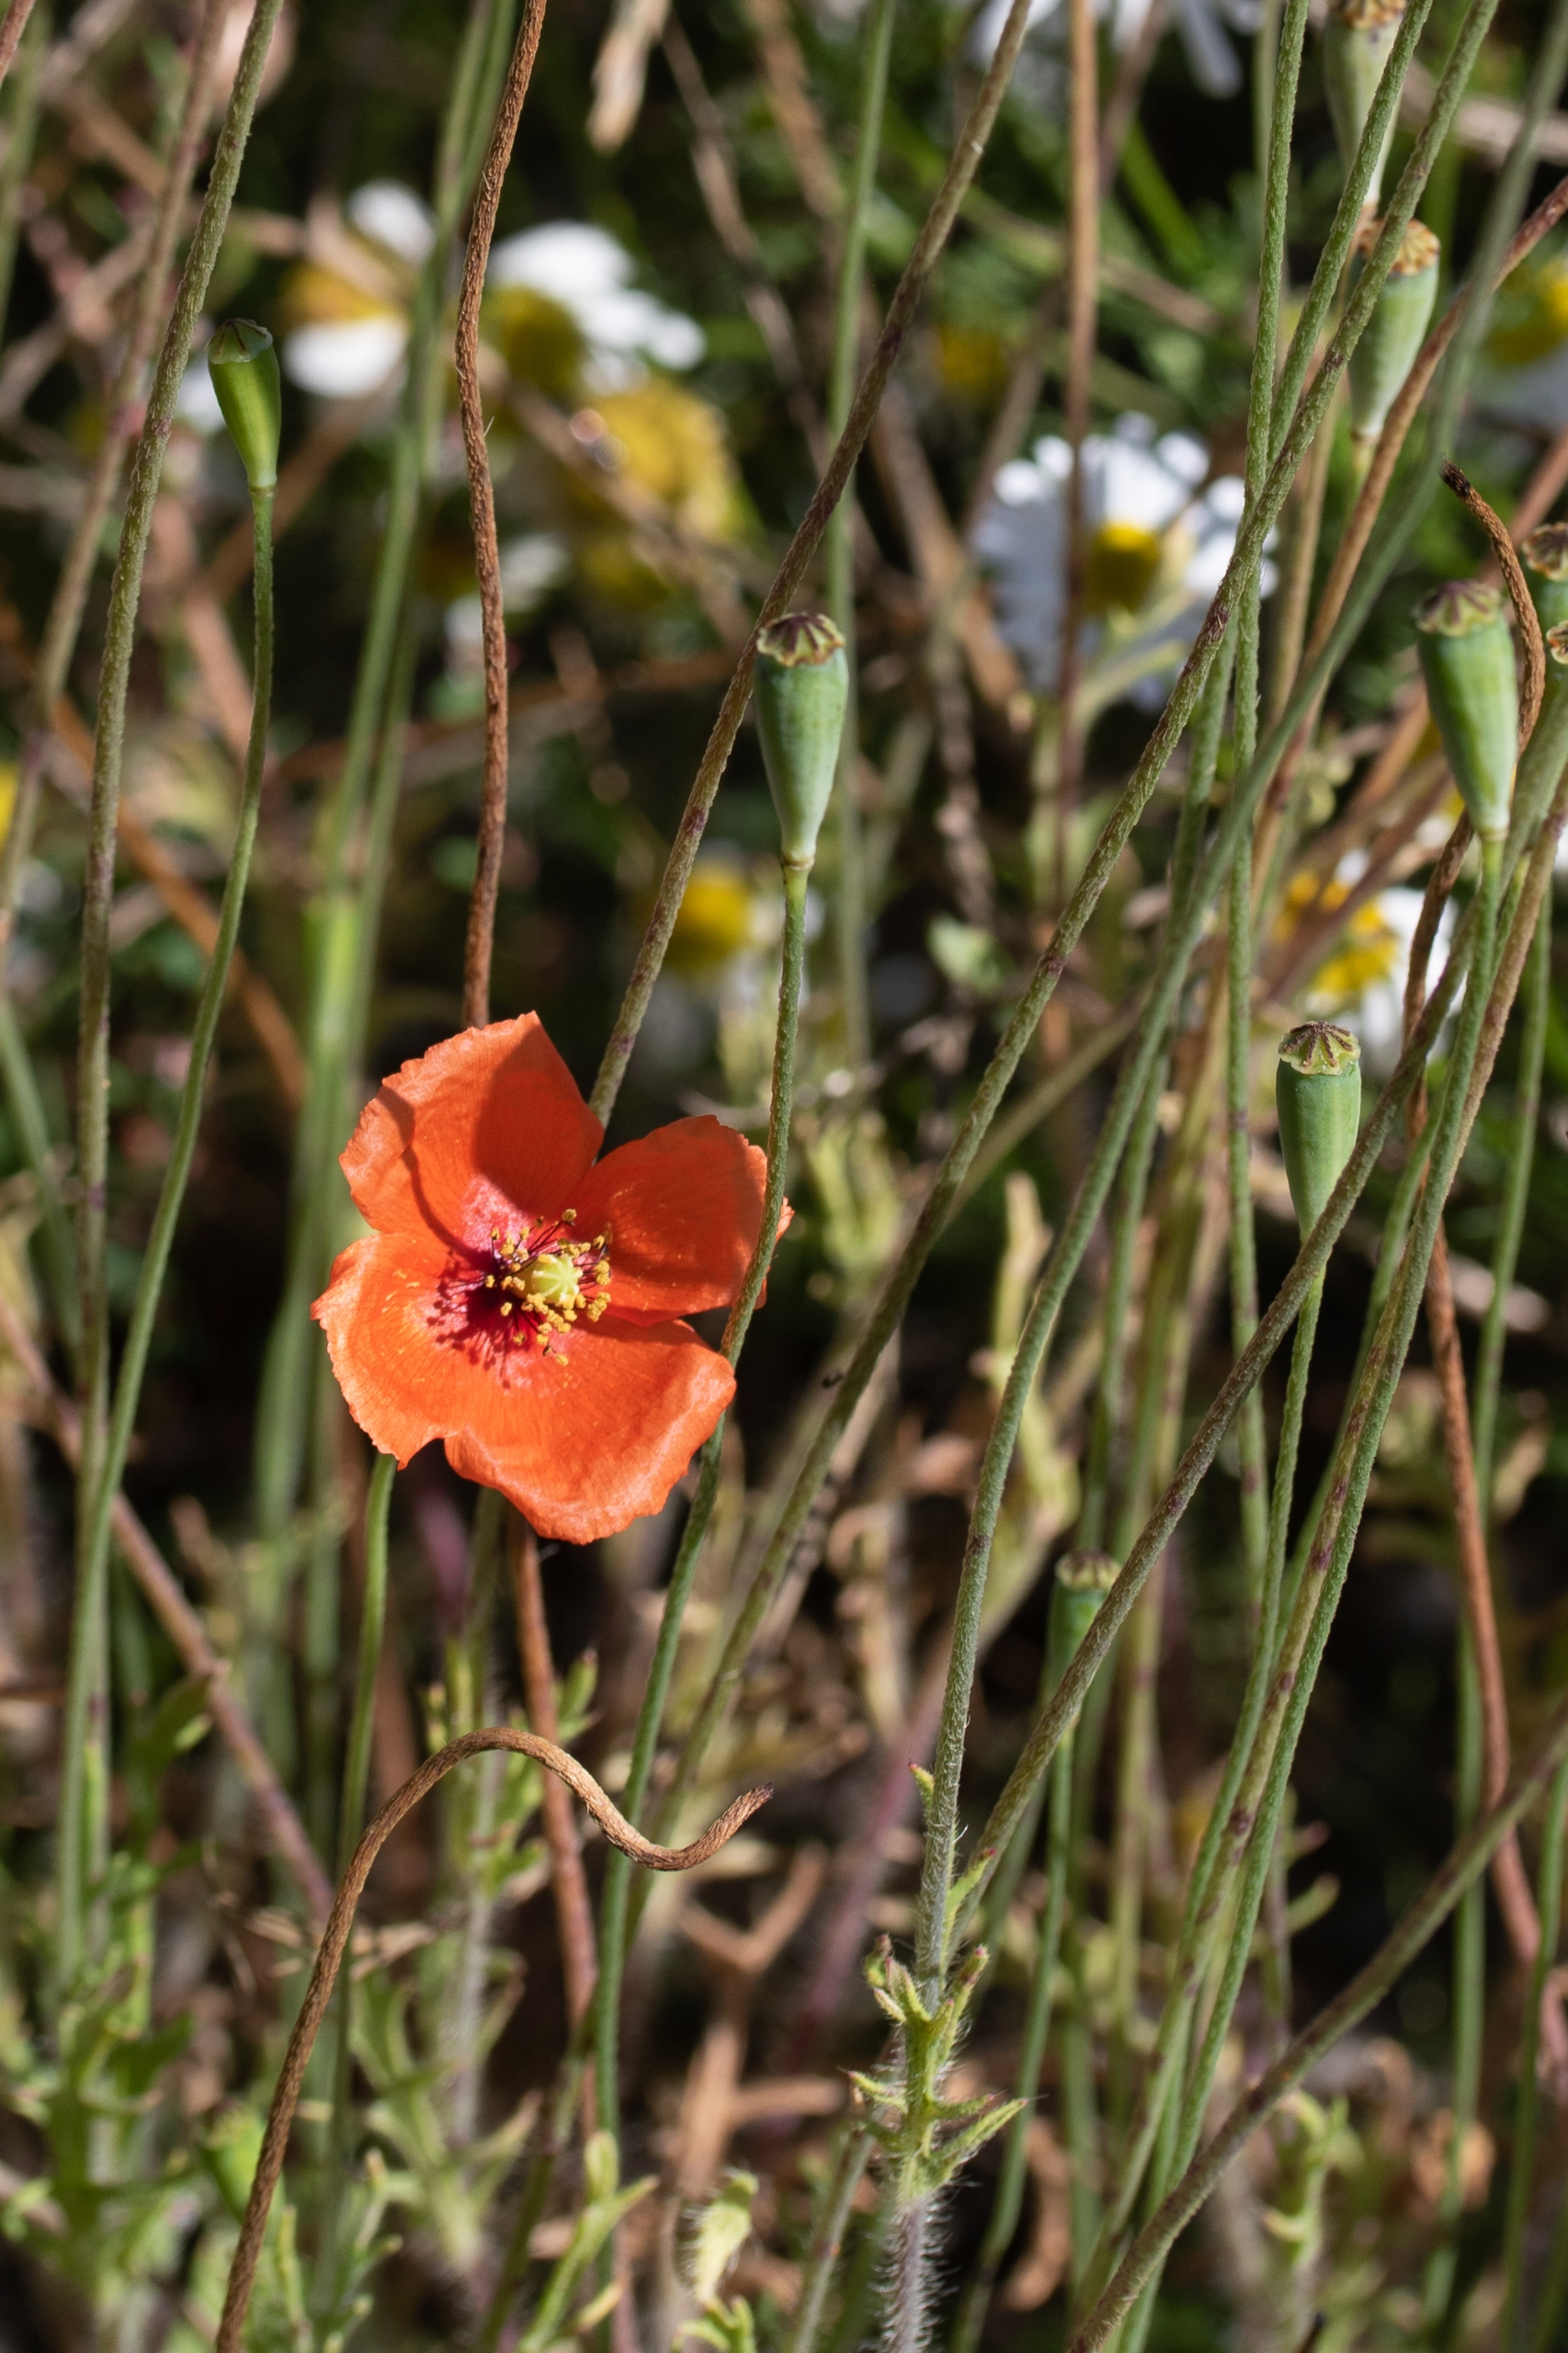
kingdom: Plantae
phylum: Tracheophyta
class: Magnoliopsida
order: Ranunculales
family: Papaveraceae
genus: Papaver
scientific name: Papaver dubium
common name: Gærde-valmue
